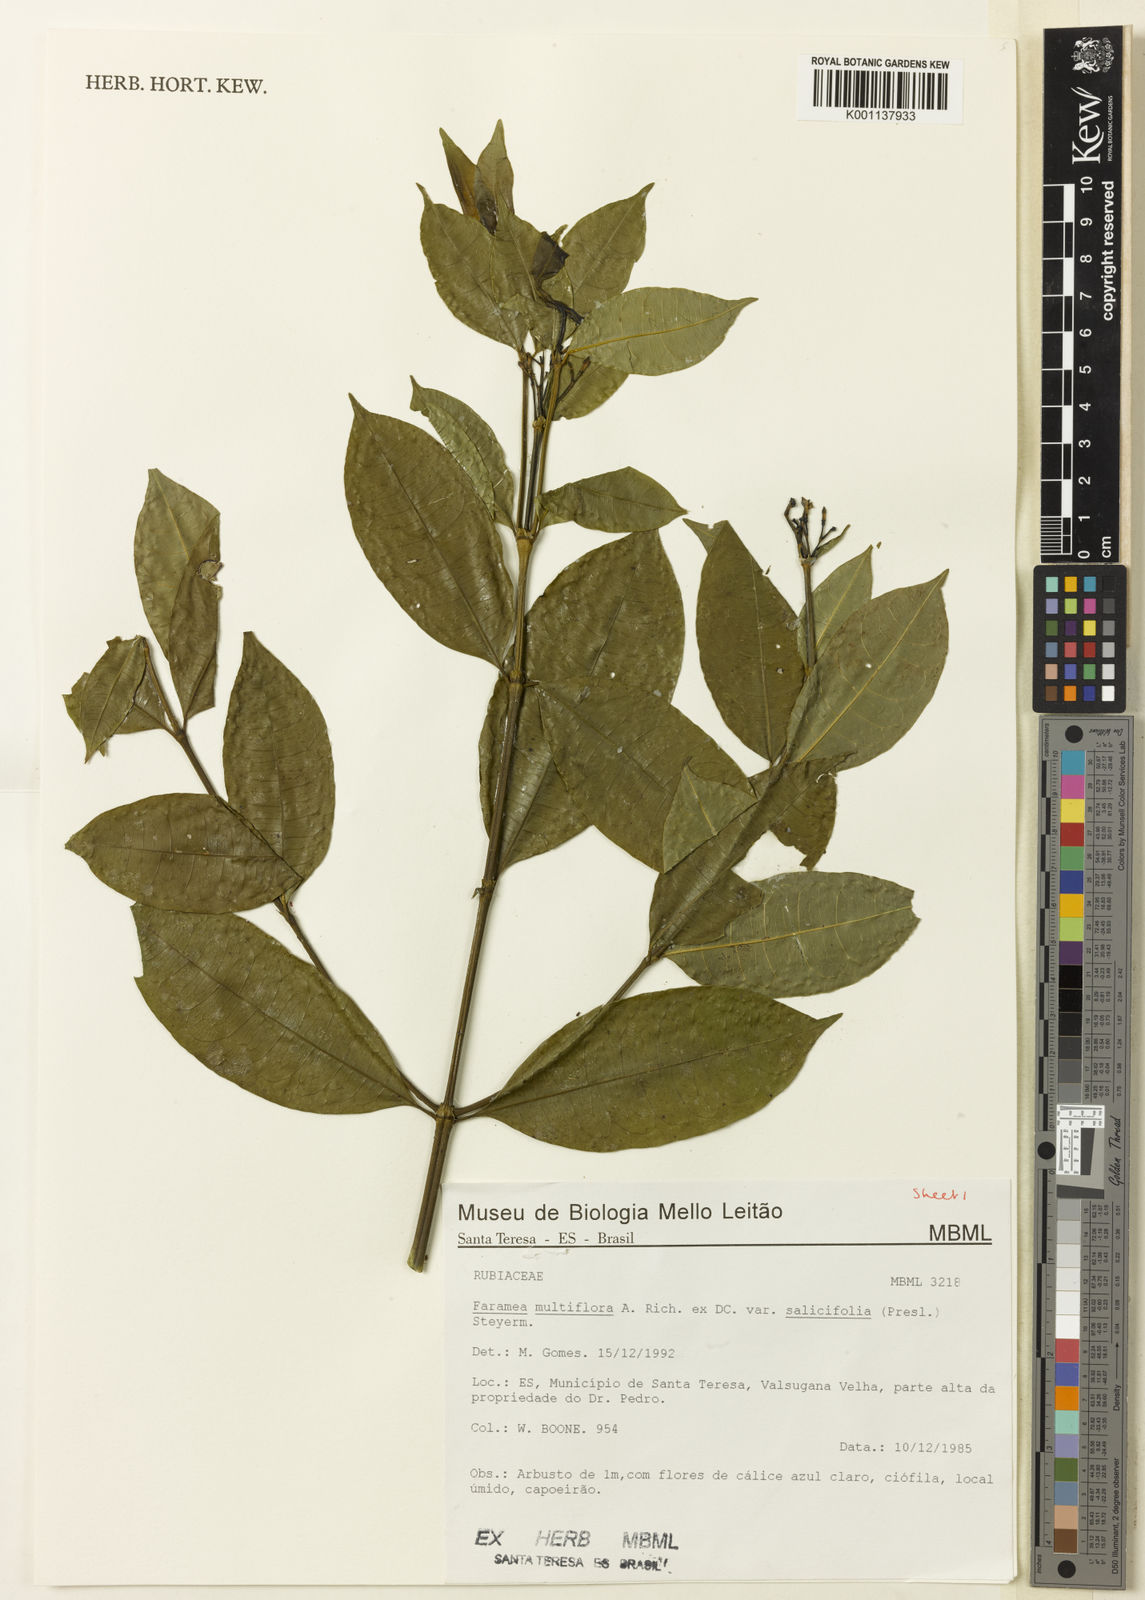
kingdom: Plantae
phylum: Tracheophyta
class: Magnoliopsida
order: Gentianales
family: Rubiaceae
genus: Faramea
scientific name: Faramea multiflora
